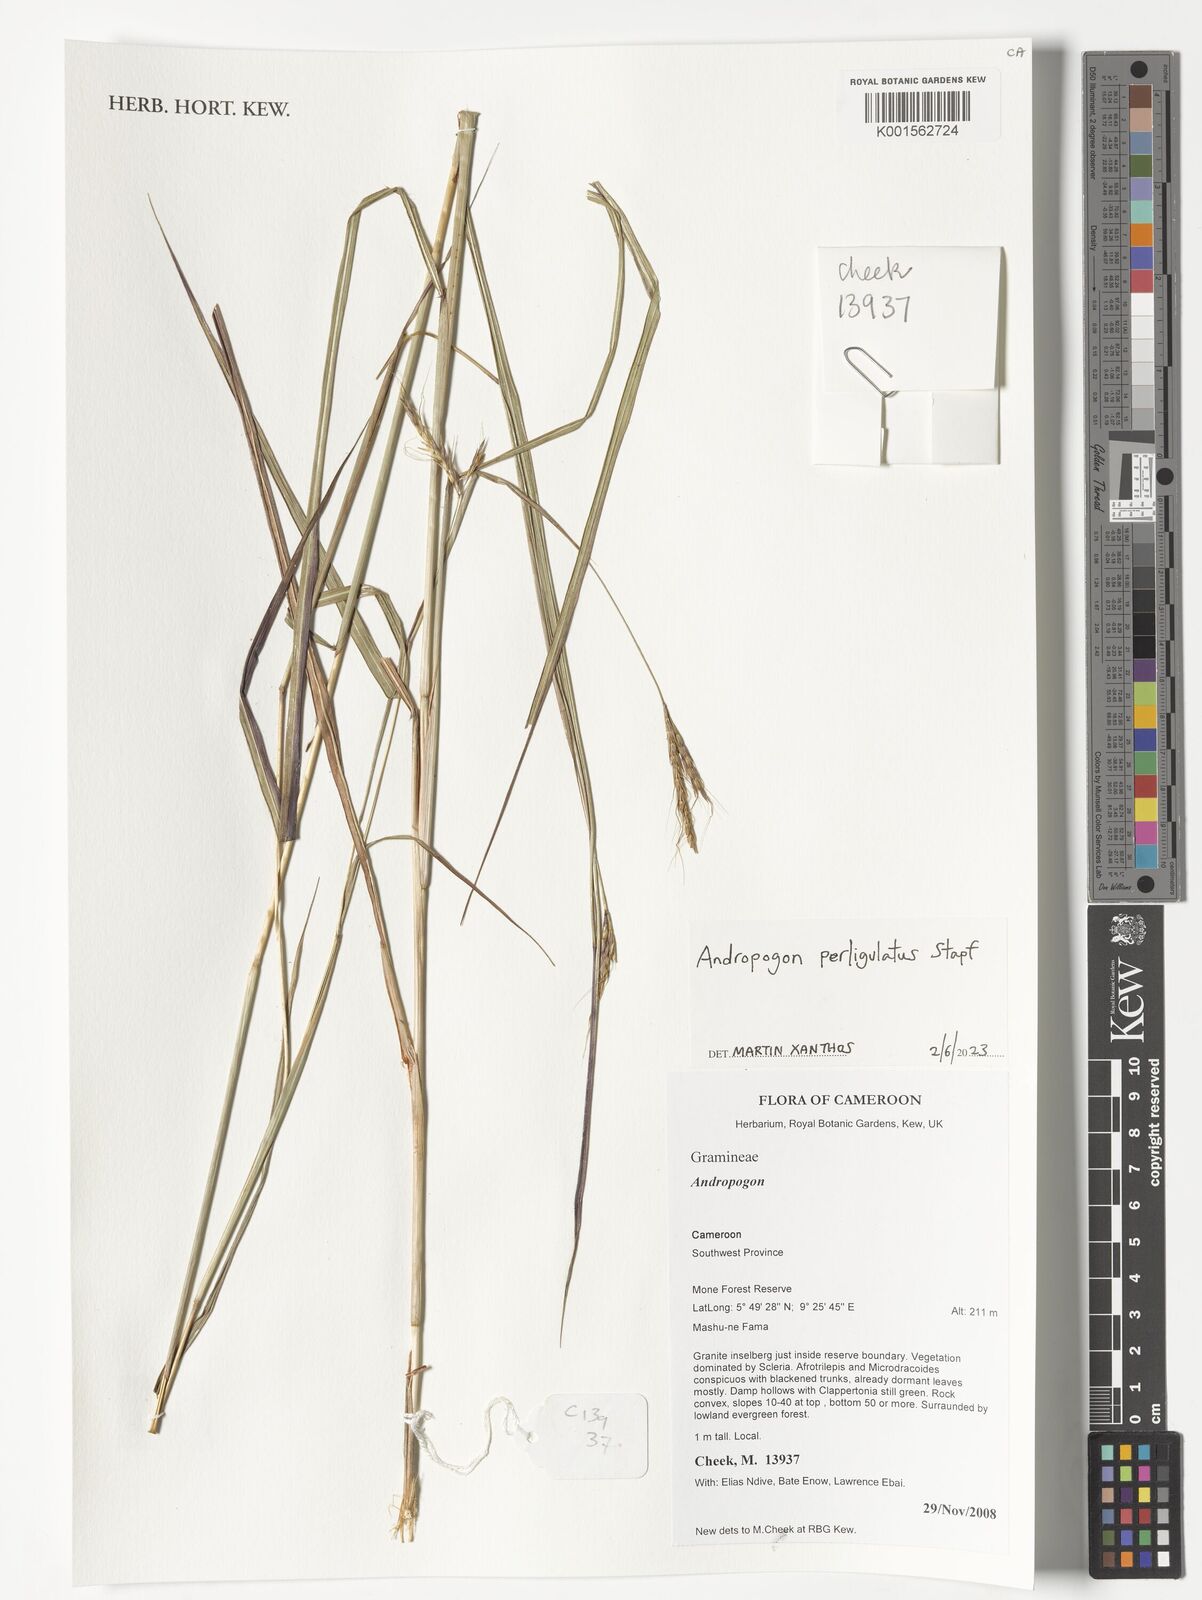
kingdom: Plantae
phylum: Tracheophyta
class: Liliopsida
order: Poales
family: Poaceae
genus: Andropogon
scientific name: Andropogon perligulatus
